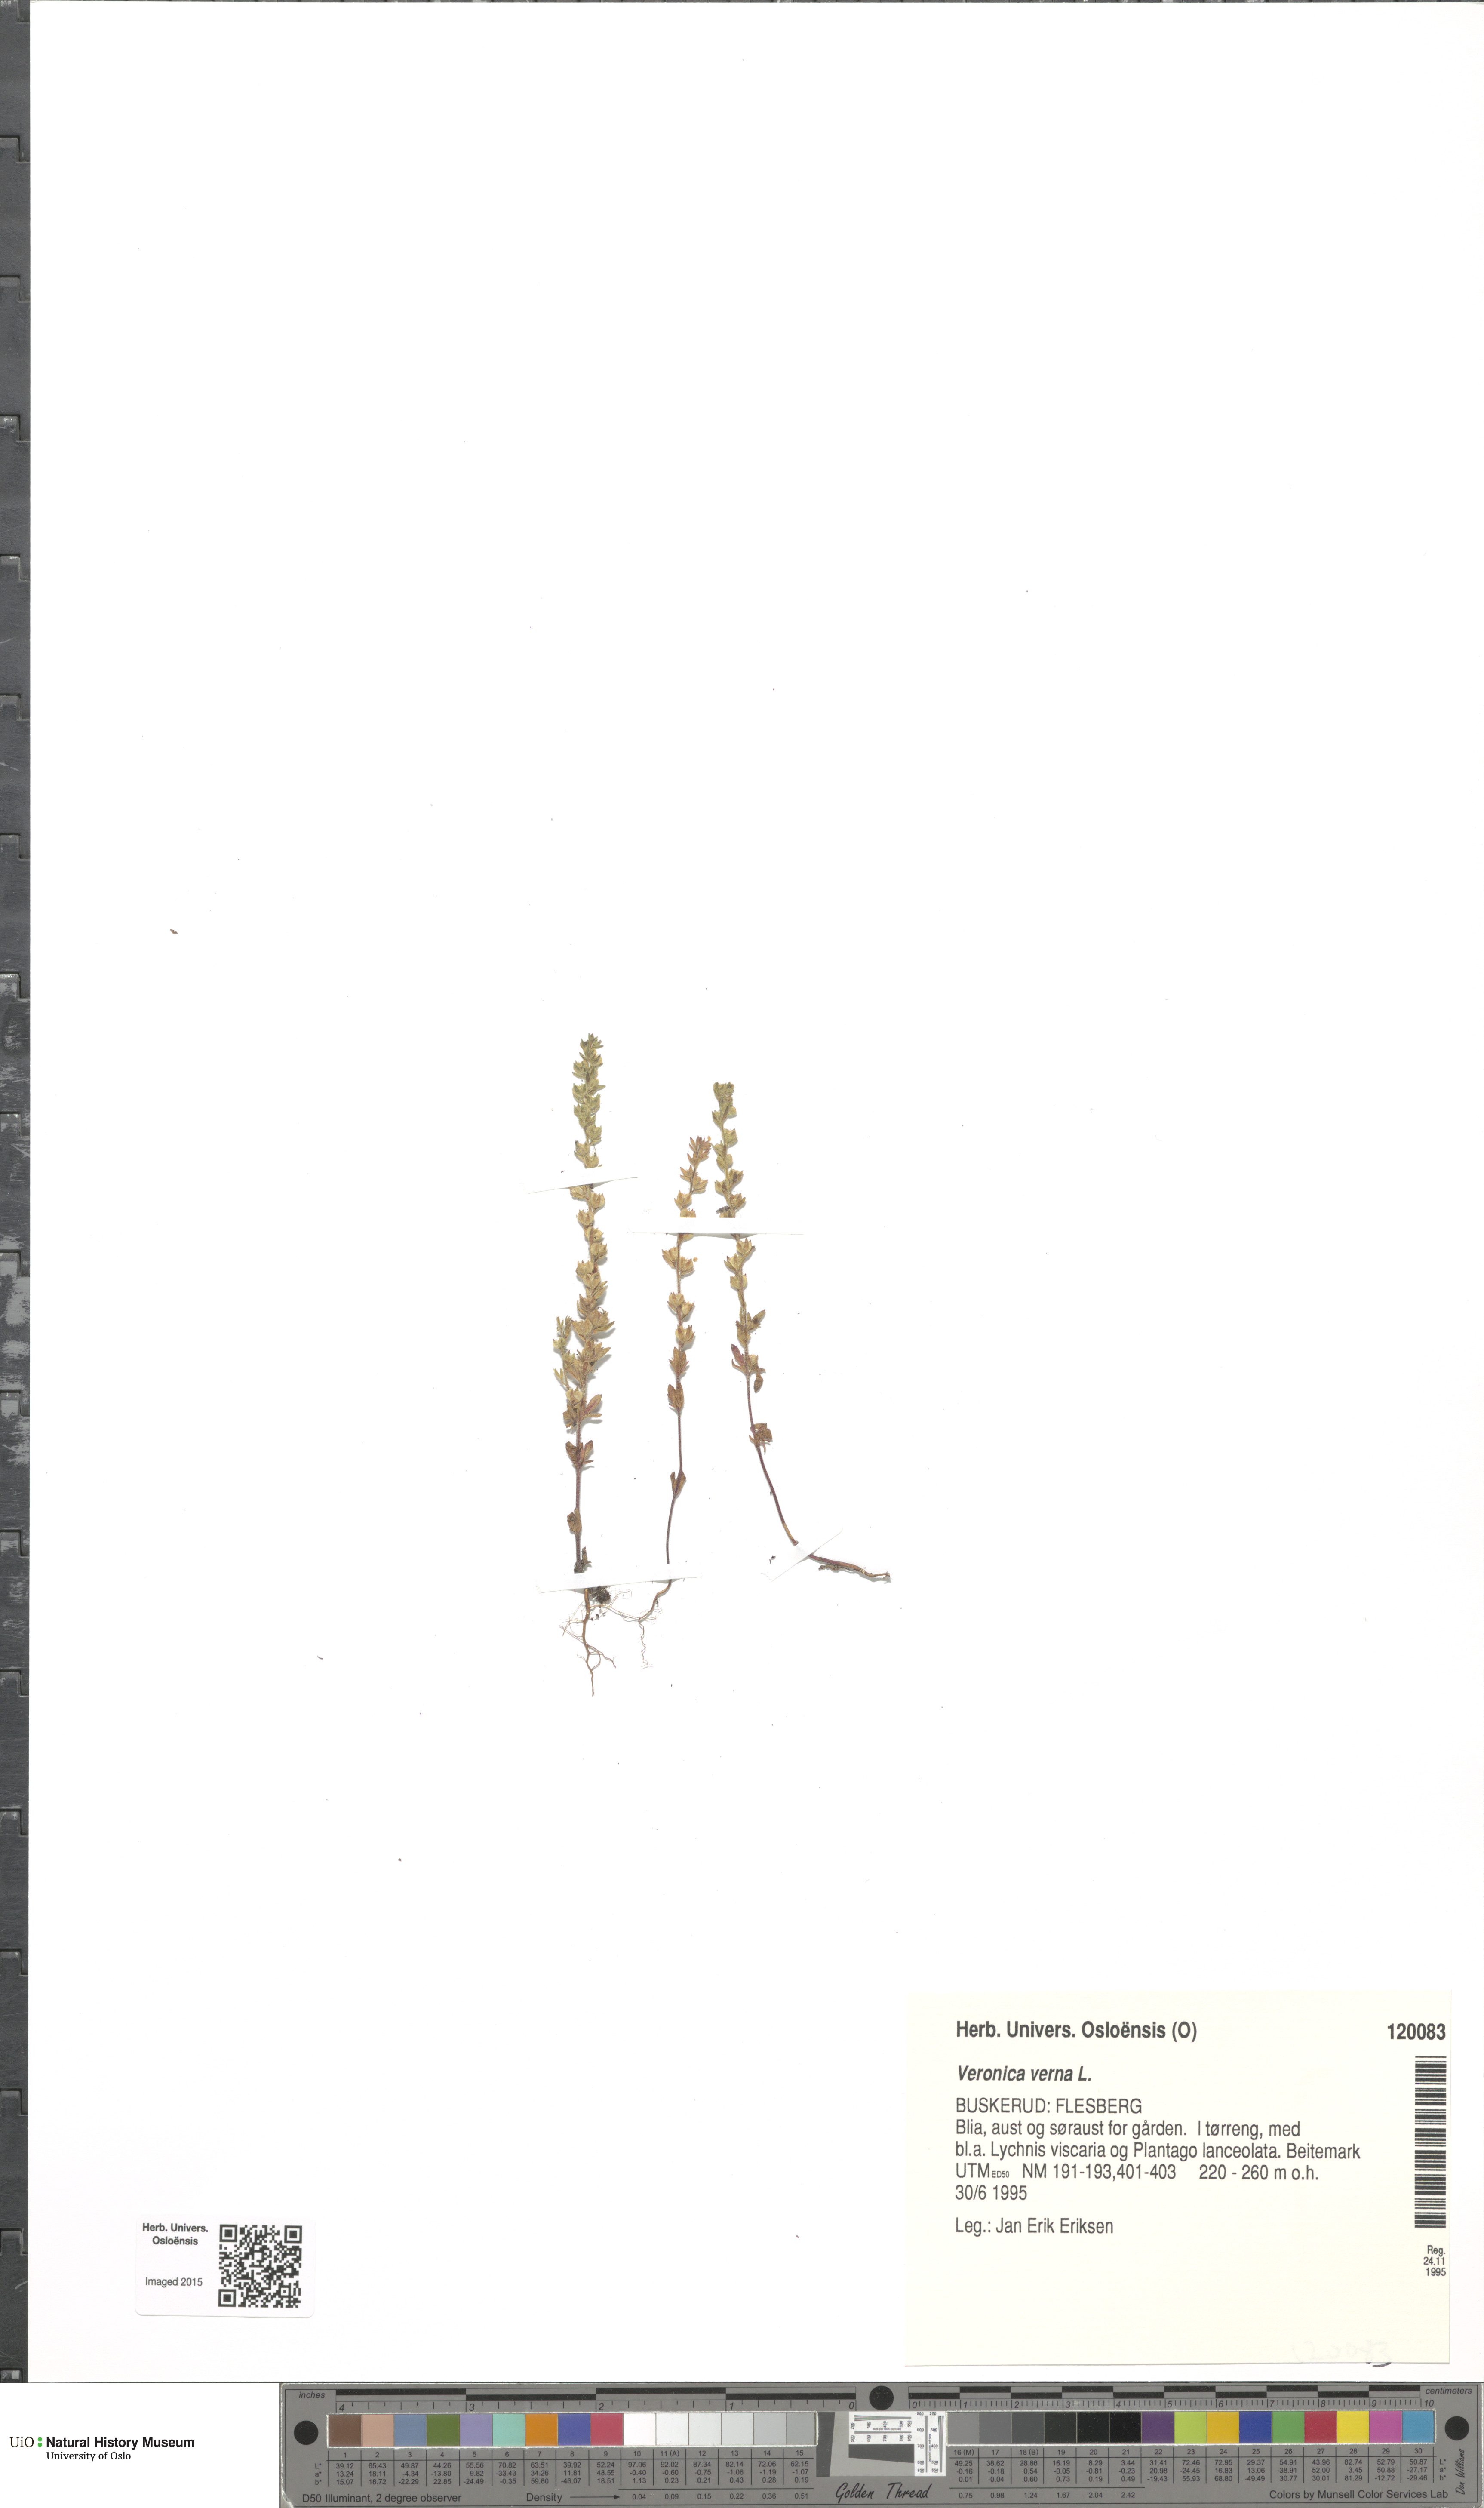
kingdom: Plantae
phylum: Tracheophyta
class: Magnoliopsida
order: Lamiales
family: Plantaginaceae
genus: Veronica
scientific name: Veronica verna
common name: Spring speedwell
